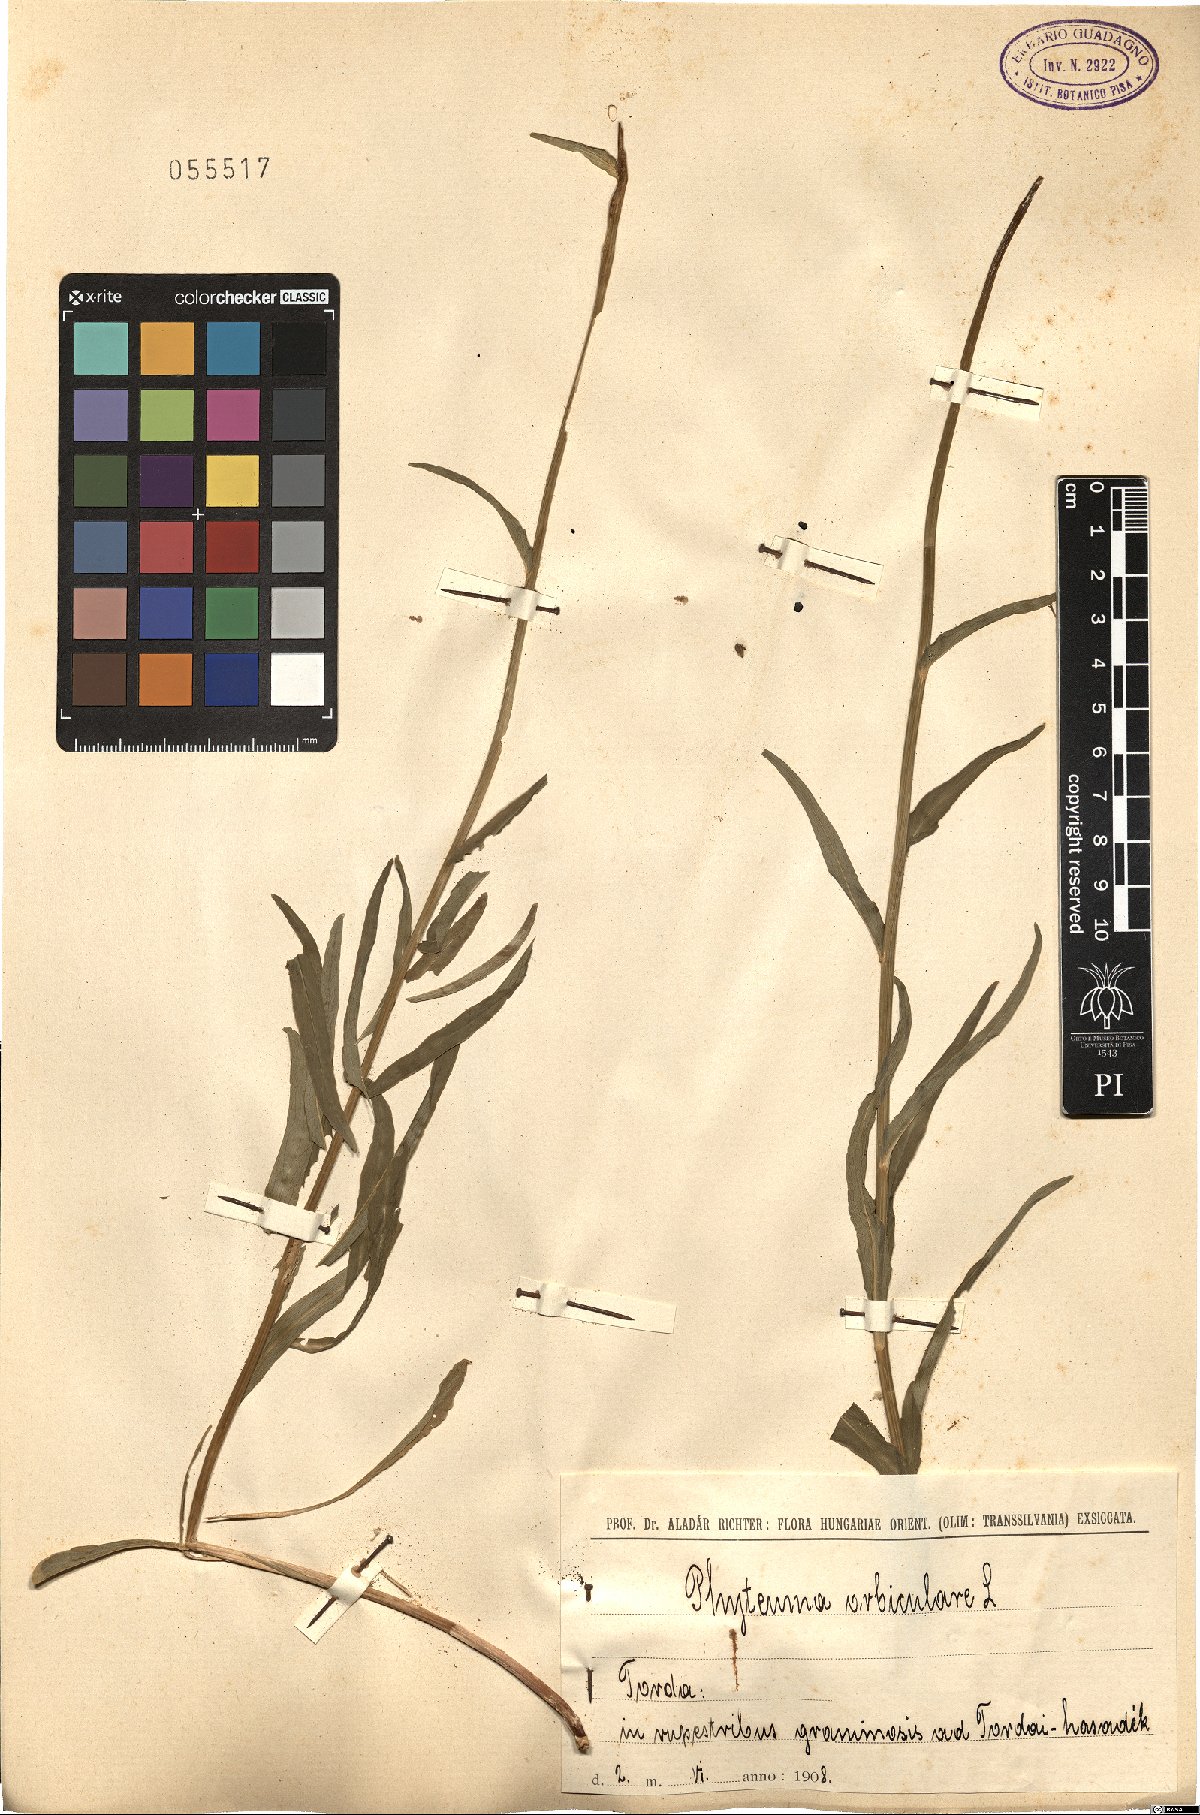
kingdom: Plantae
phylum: Tracheophyta
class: Magnoliopsida
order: Asterales
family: Campanulaceae
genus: Phyteuma
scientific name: Phyteuma orbiculare
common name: Round-headed rampion
